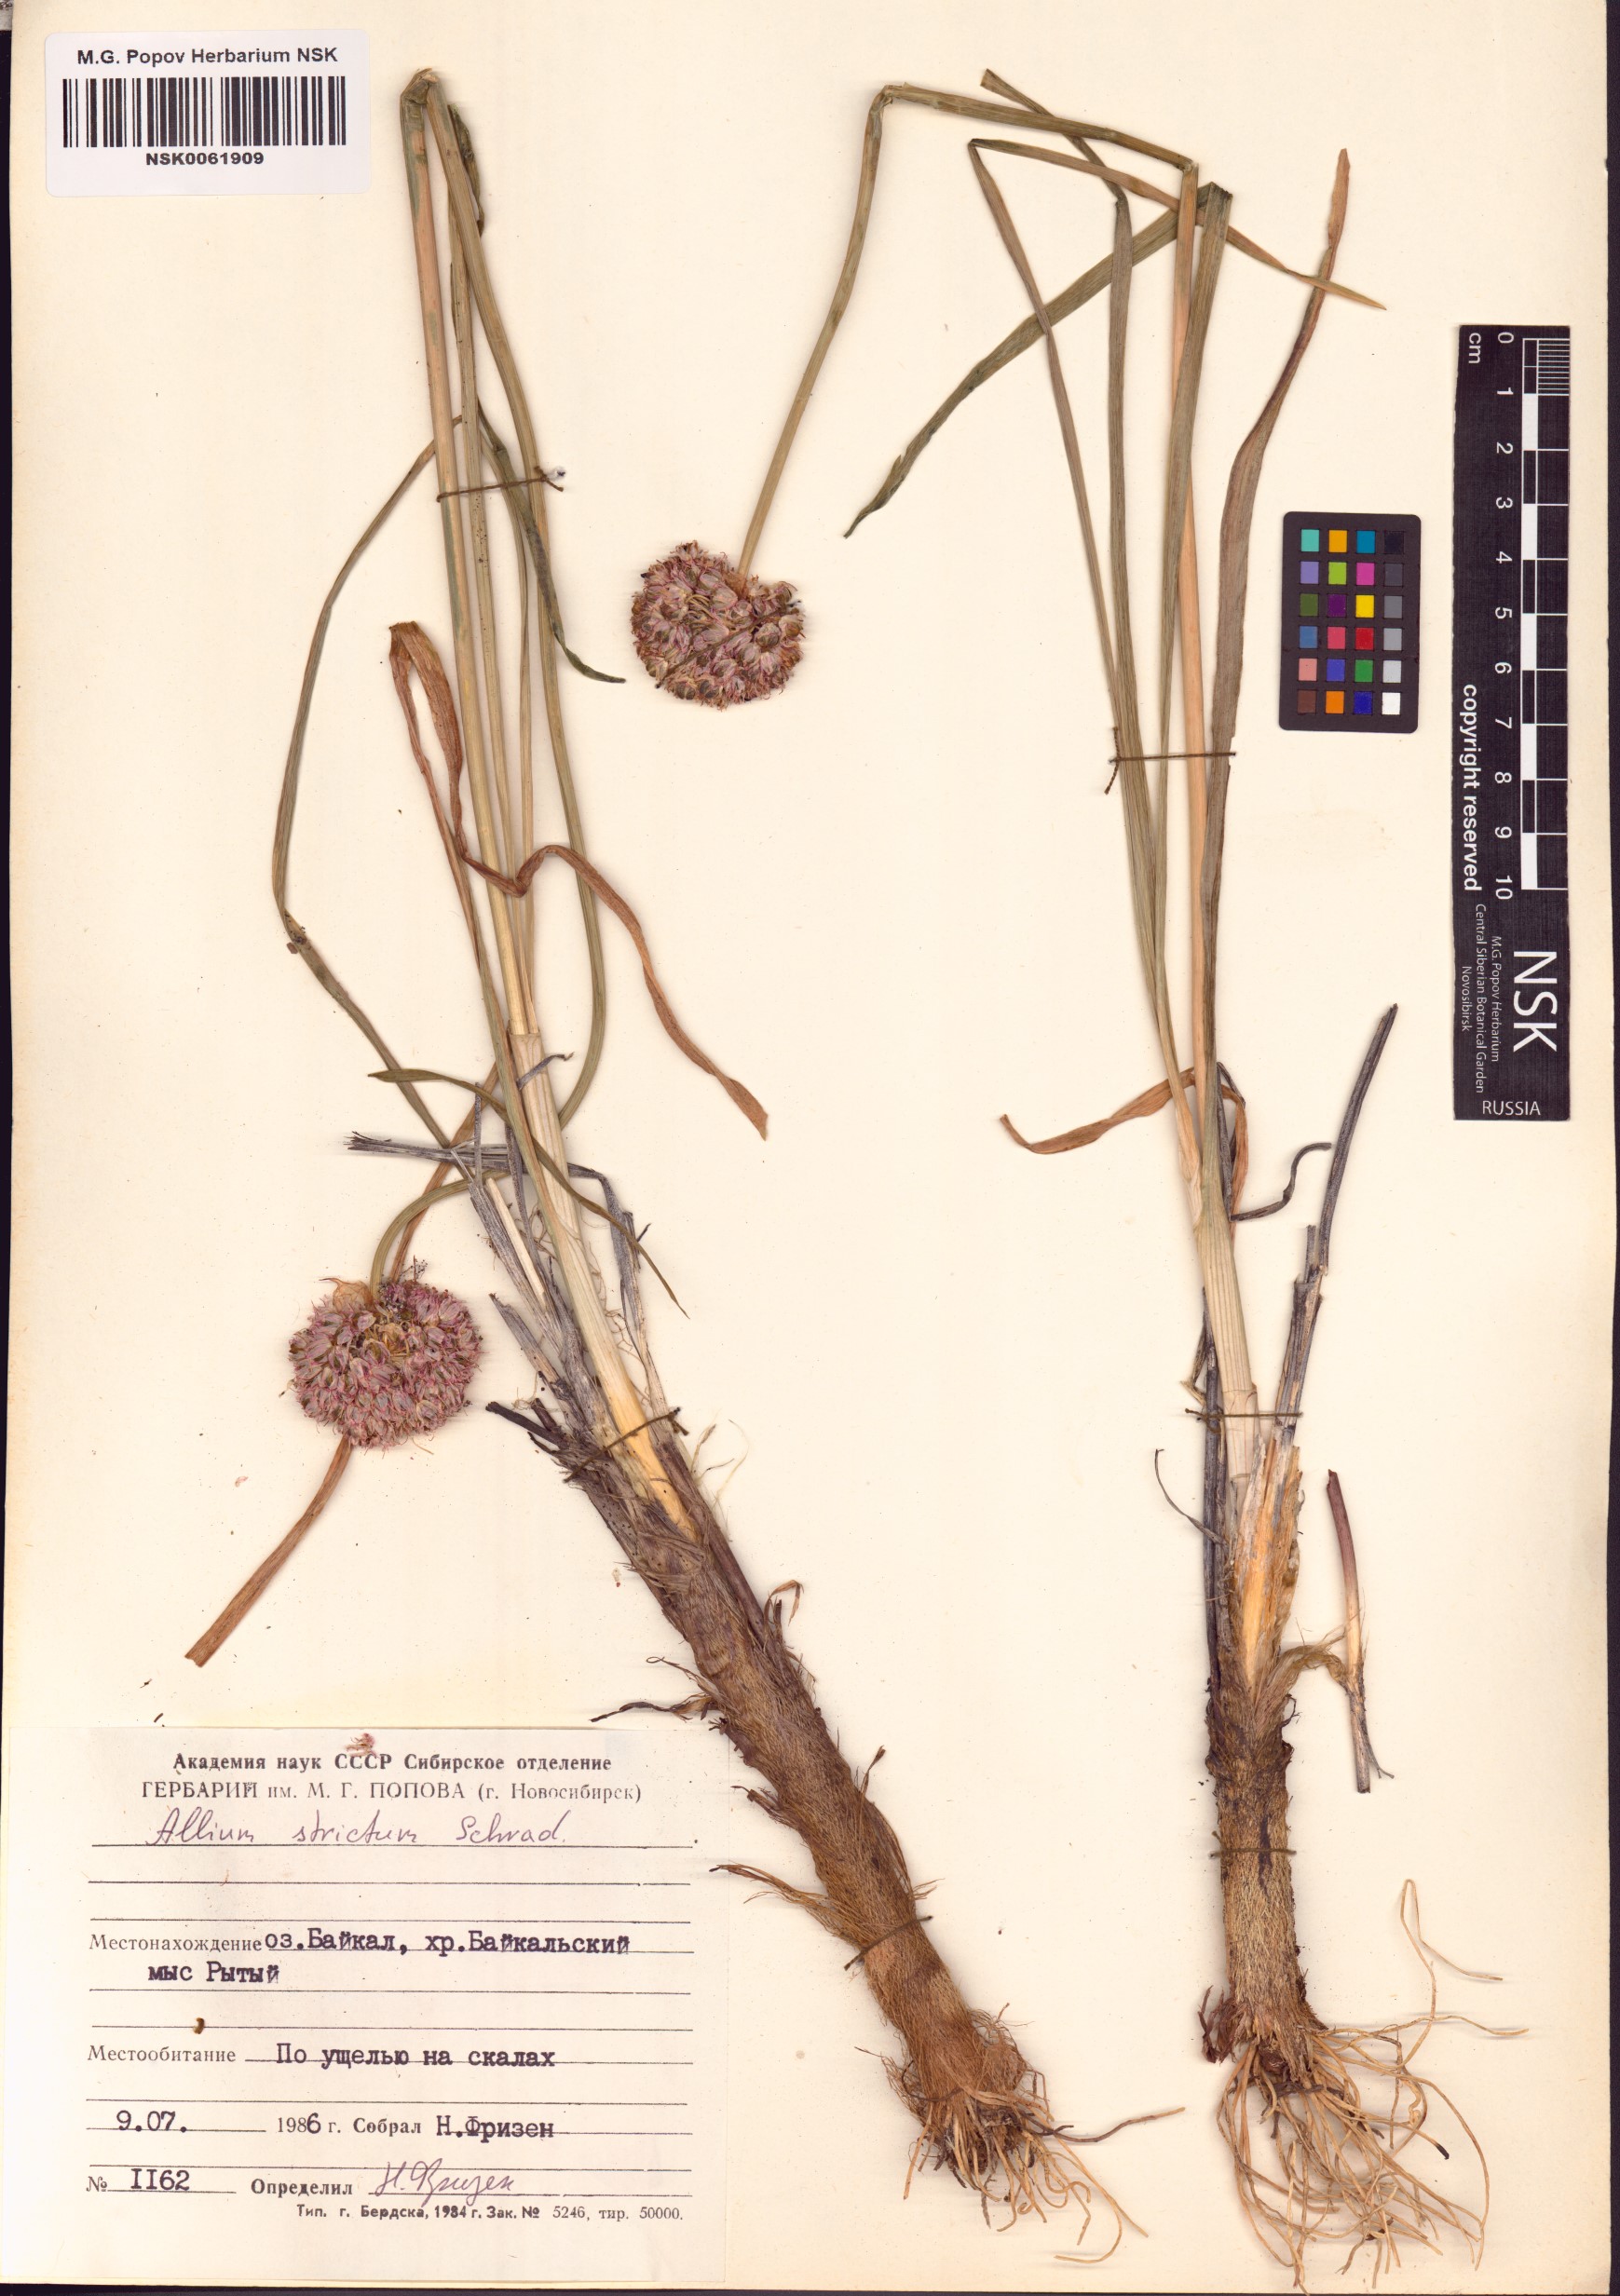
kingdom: Plantae
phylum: Tracheophyta
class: Liliopsida
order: Asparagales
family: Amaryllidaceae
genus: Allium
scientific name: Allium strictum
